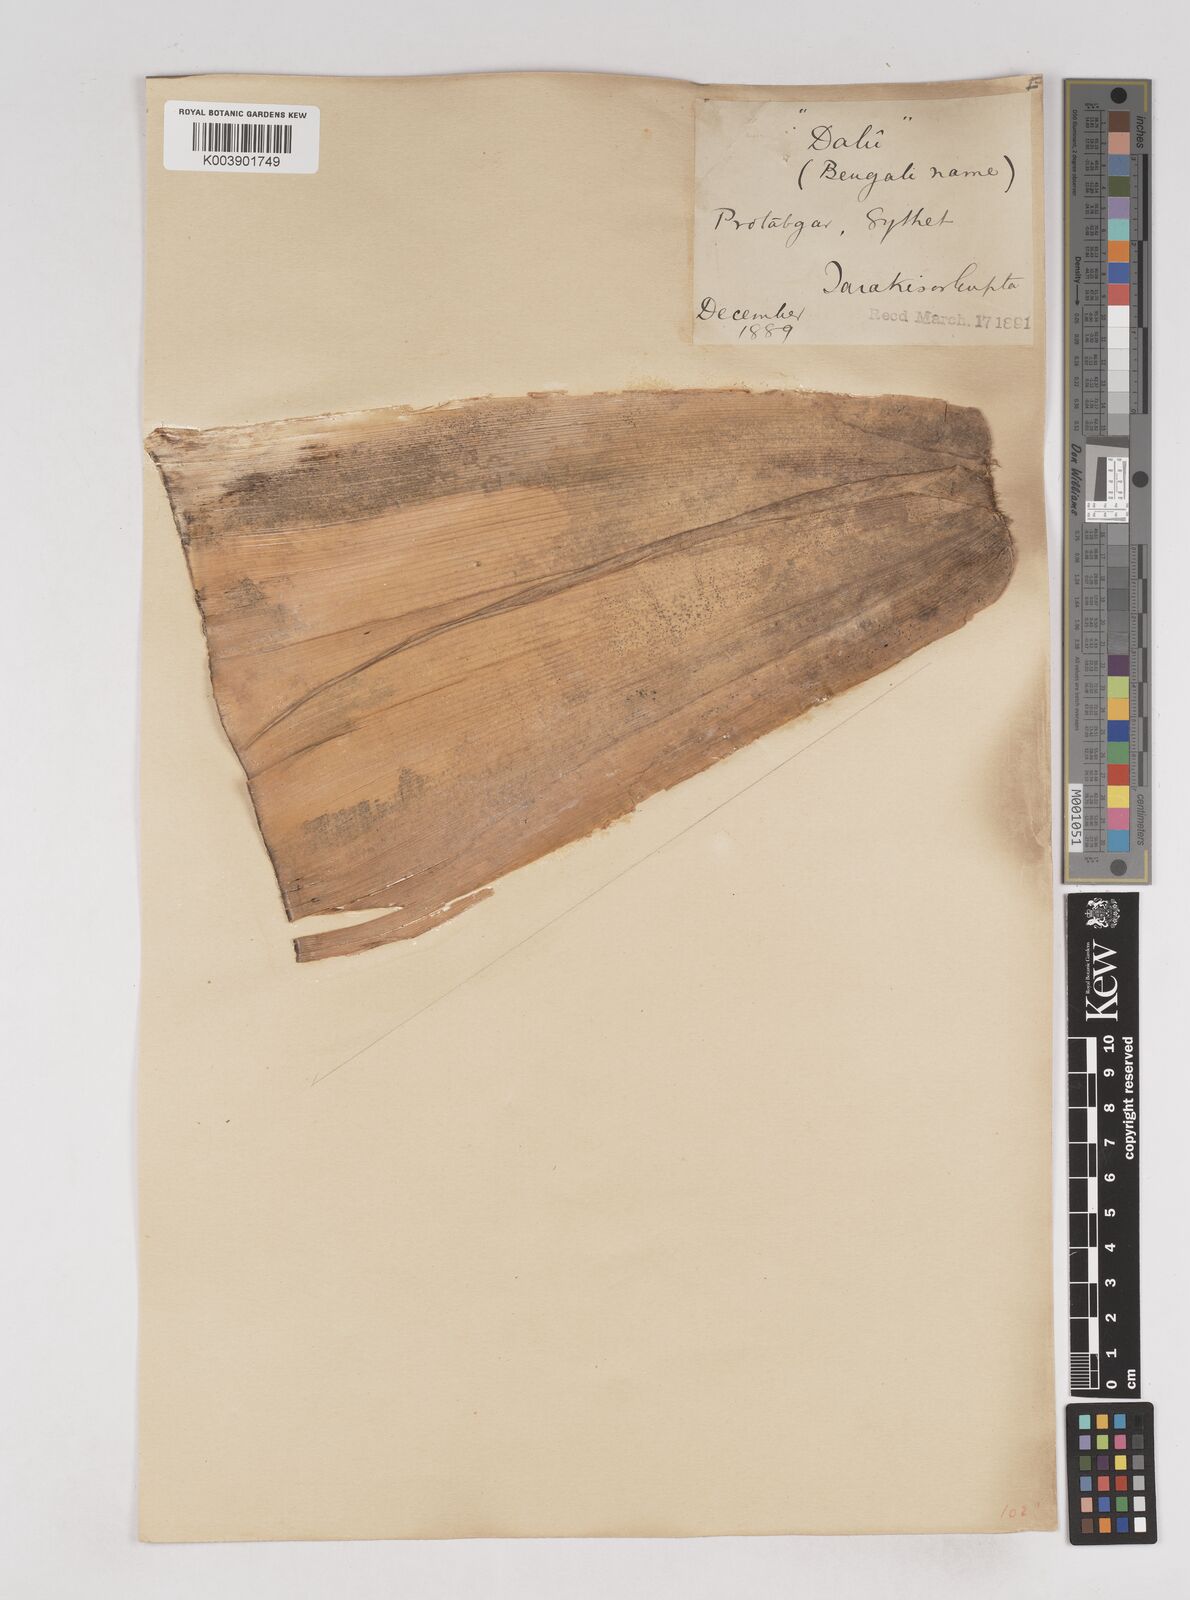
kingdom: Plantae
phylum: Tracheophyta
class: Liliopsida
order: Poales
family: Poaceae
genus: Schizostachyum
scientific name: Schizostachyum dullooa
